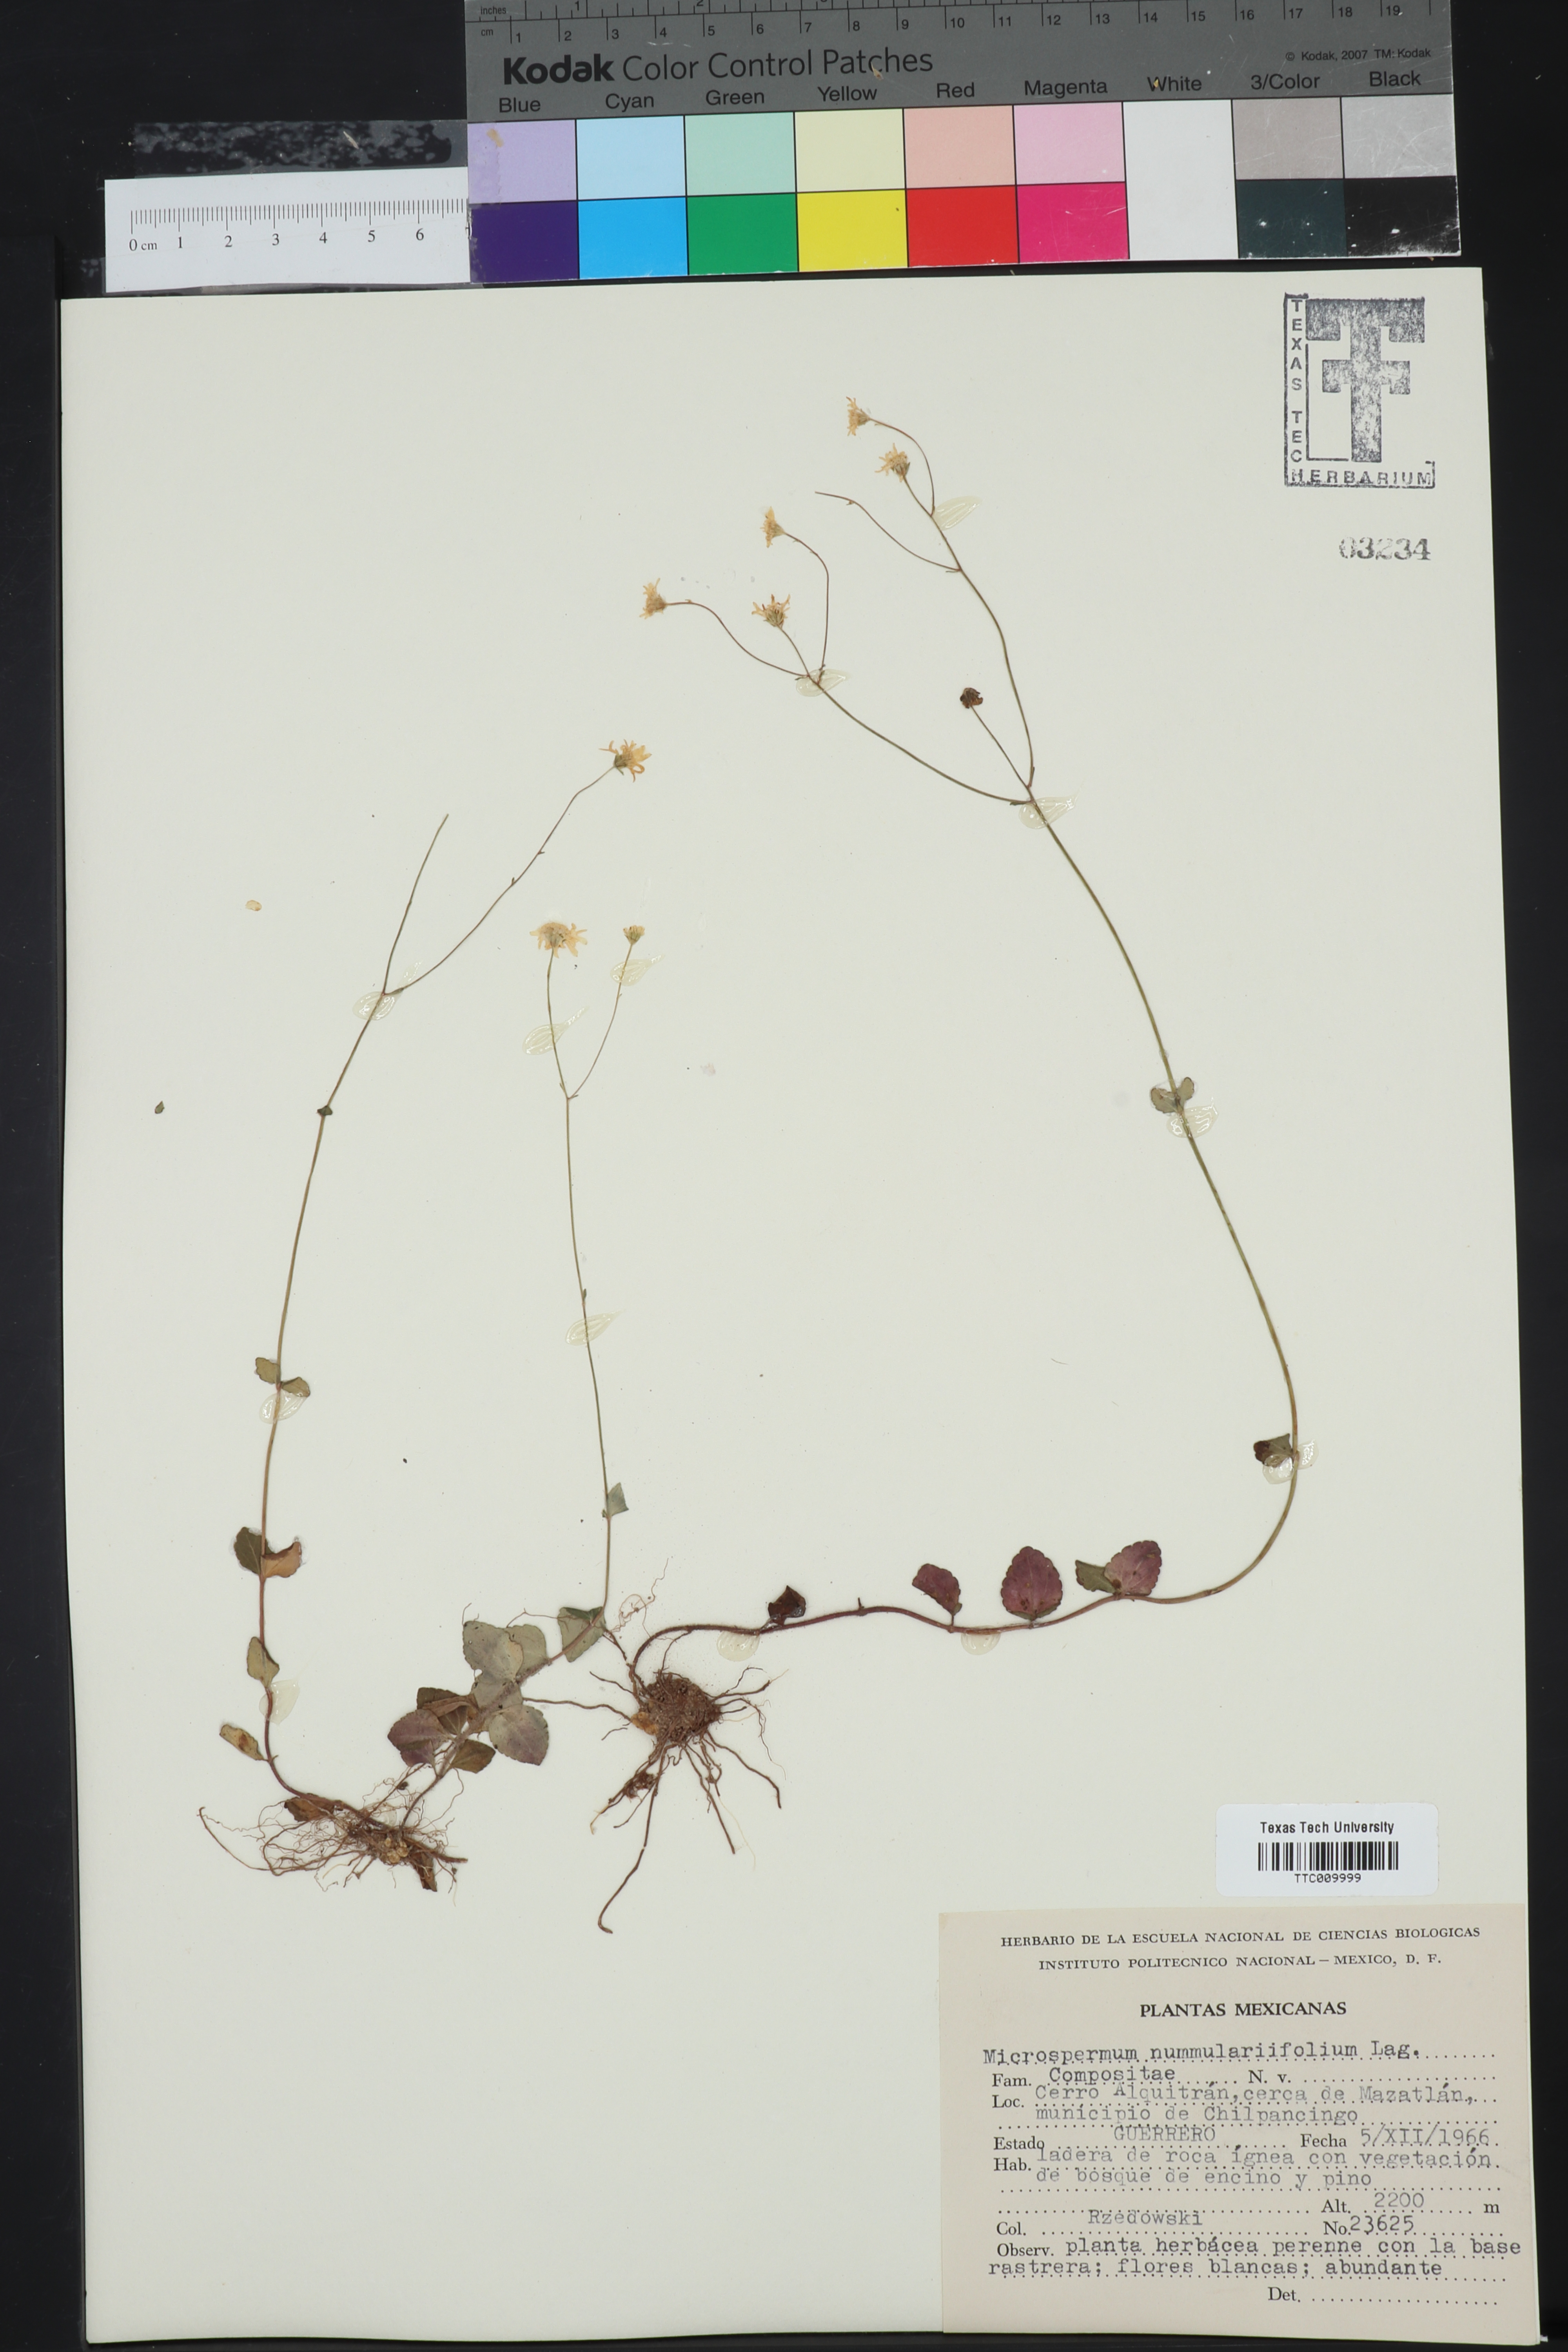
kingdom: Plantae
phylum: Tracheophyta
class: Magnoliopsida
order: Asterales
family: Asteraceae
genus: Microspermum
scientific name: Microspermum nummulariifolium
